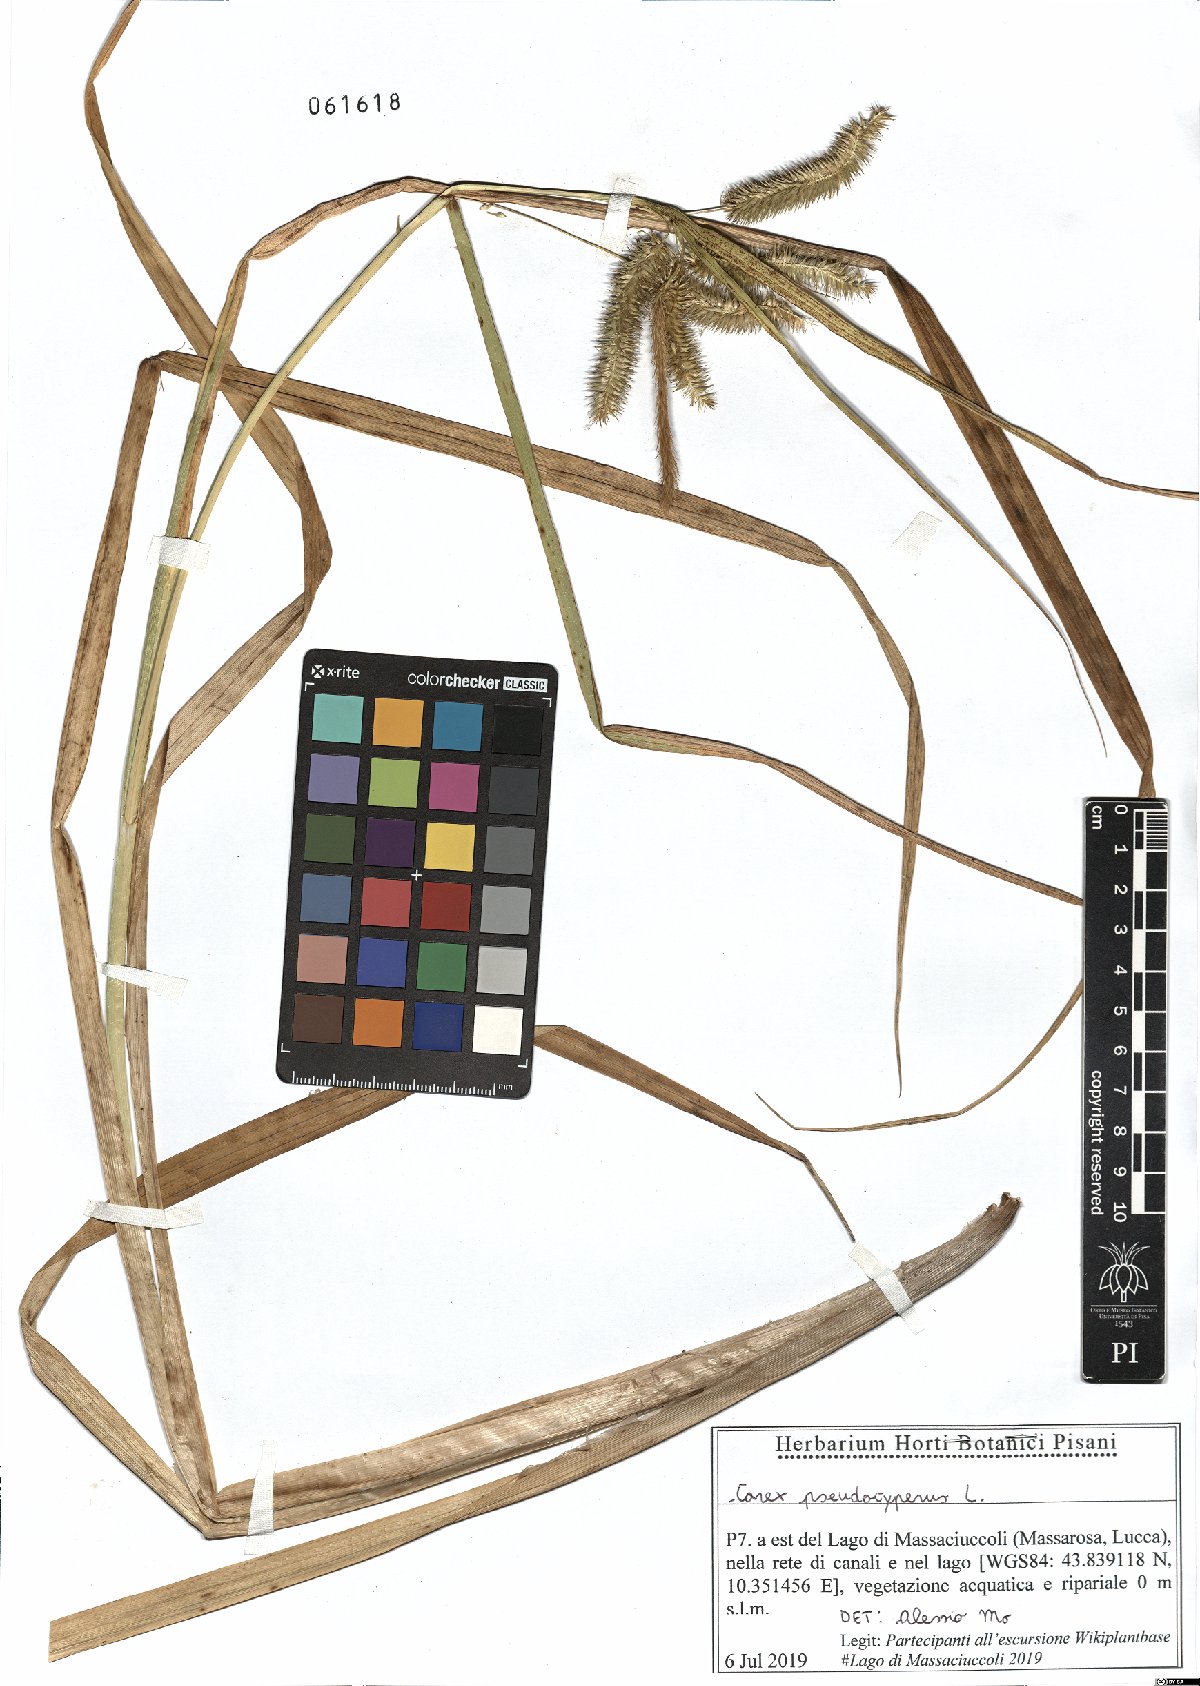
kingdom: Plantae
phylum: Tracheophyta
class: Liliopsida
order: Poales
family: Cyperaceae
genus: Carex
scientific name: Carex pseudocyperus
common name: Cyperus sedge
